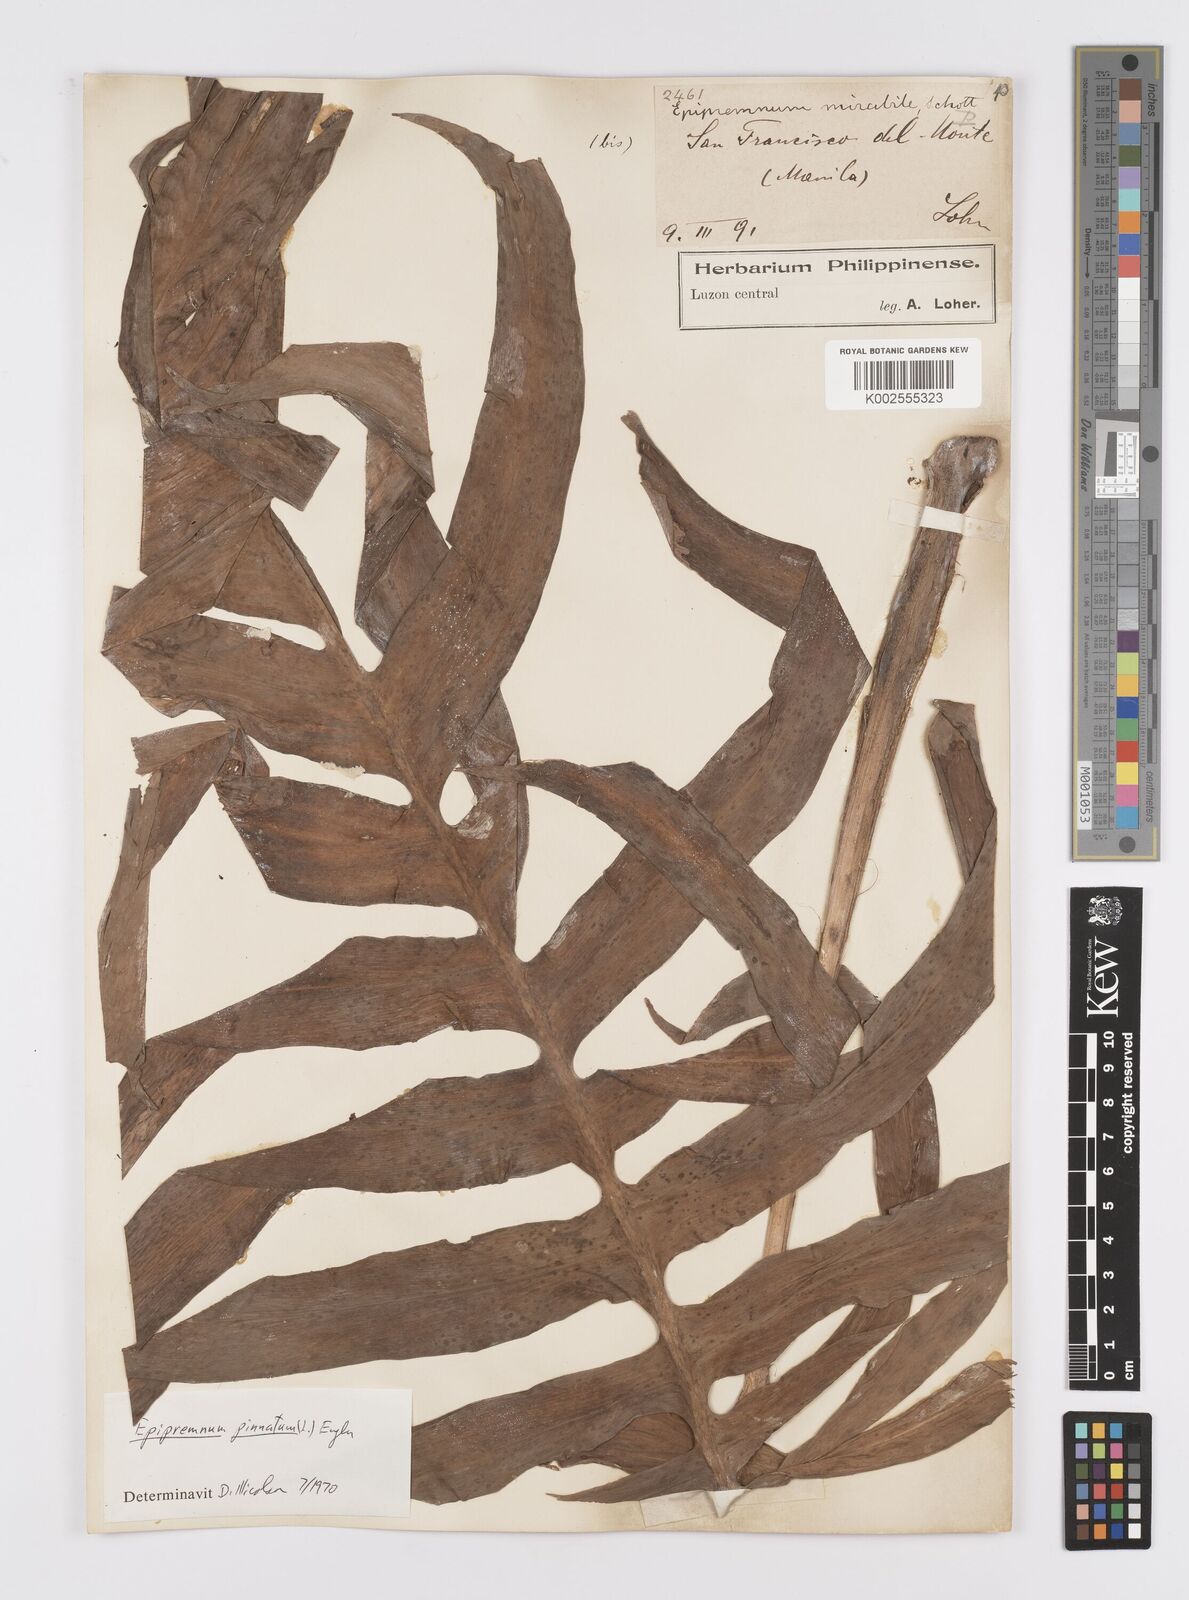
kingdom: Plantae
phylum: Tracheophyta
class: Liliopsida
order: Alismatales
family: Araceae
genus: Epipremnum
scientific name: Epipremnum pinnatum
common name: Centipede tongavine
